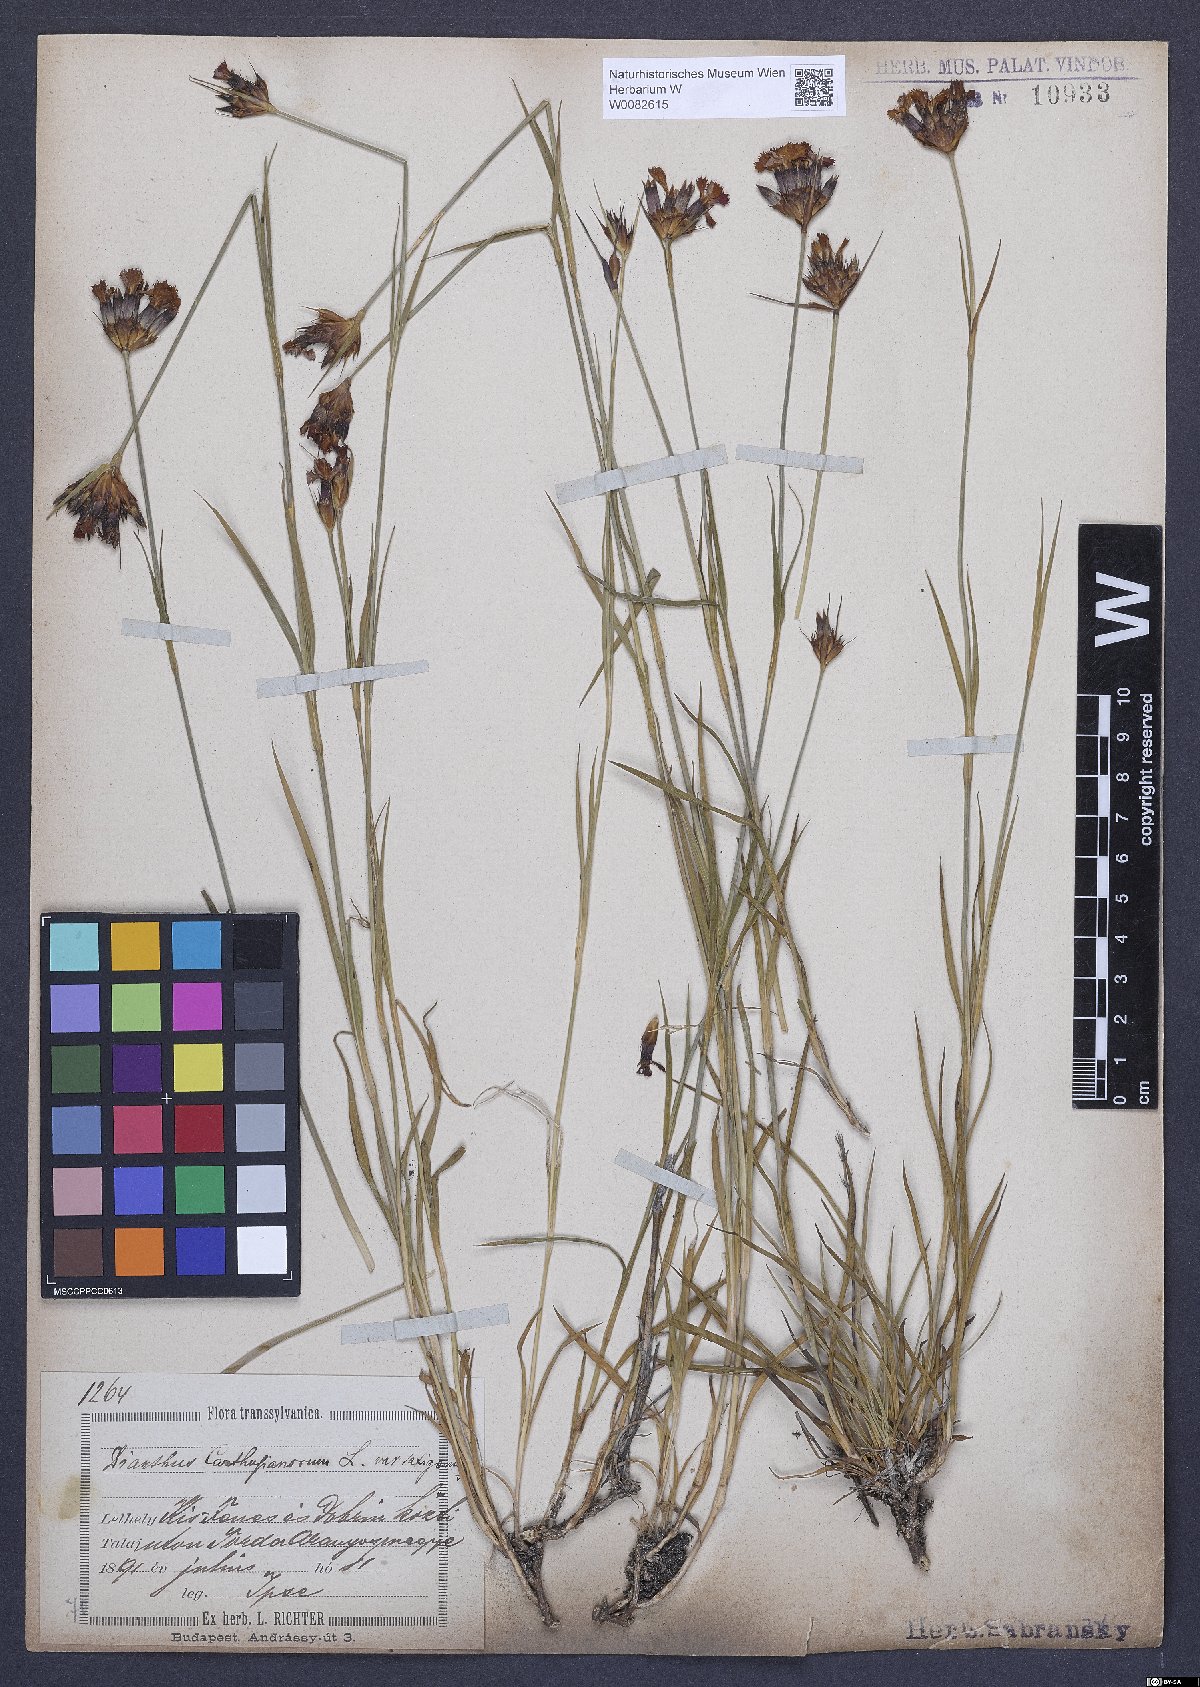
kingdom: Plantae
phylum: Tracheophyta
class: Magnoliopsida
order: Caryophyllales
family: Caryophyllaceae
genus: Dianthus
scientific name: Dianthus carthusianorum
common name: Carthusian pink
